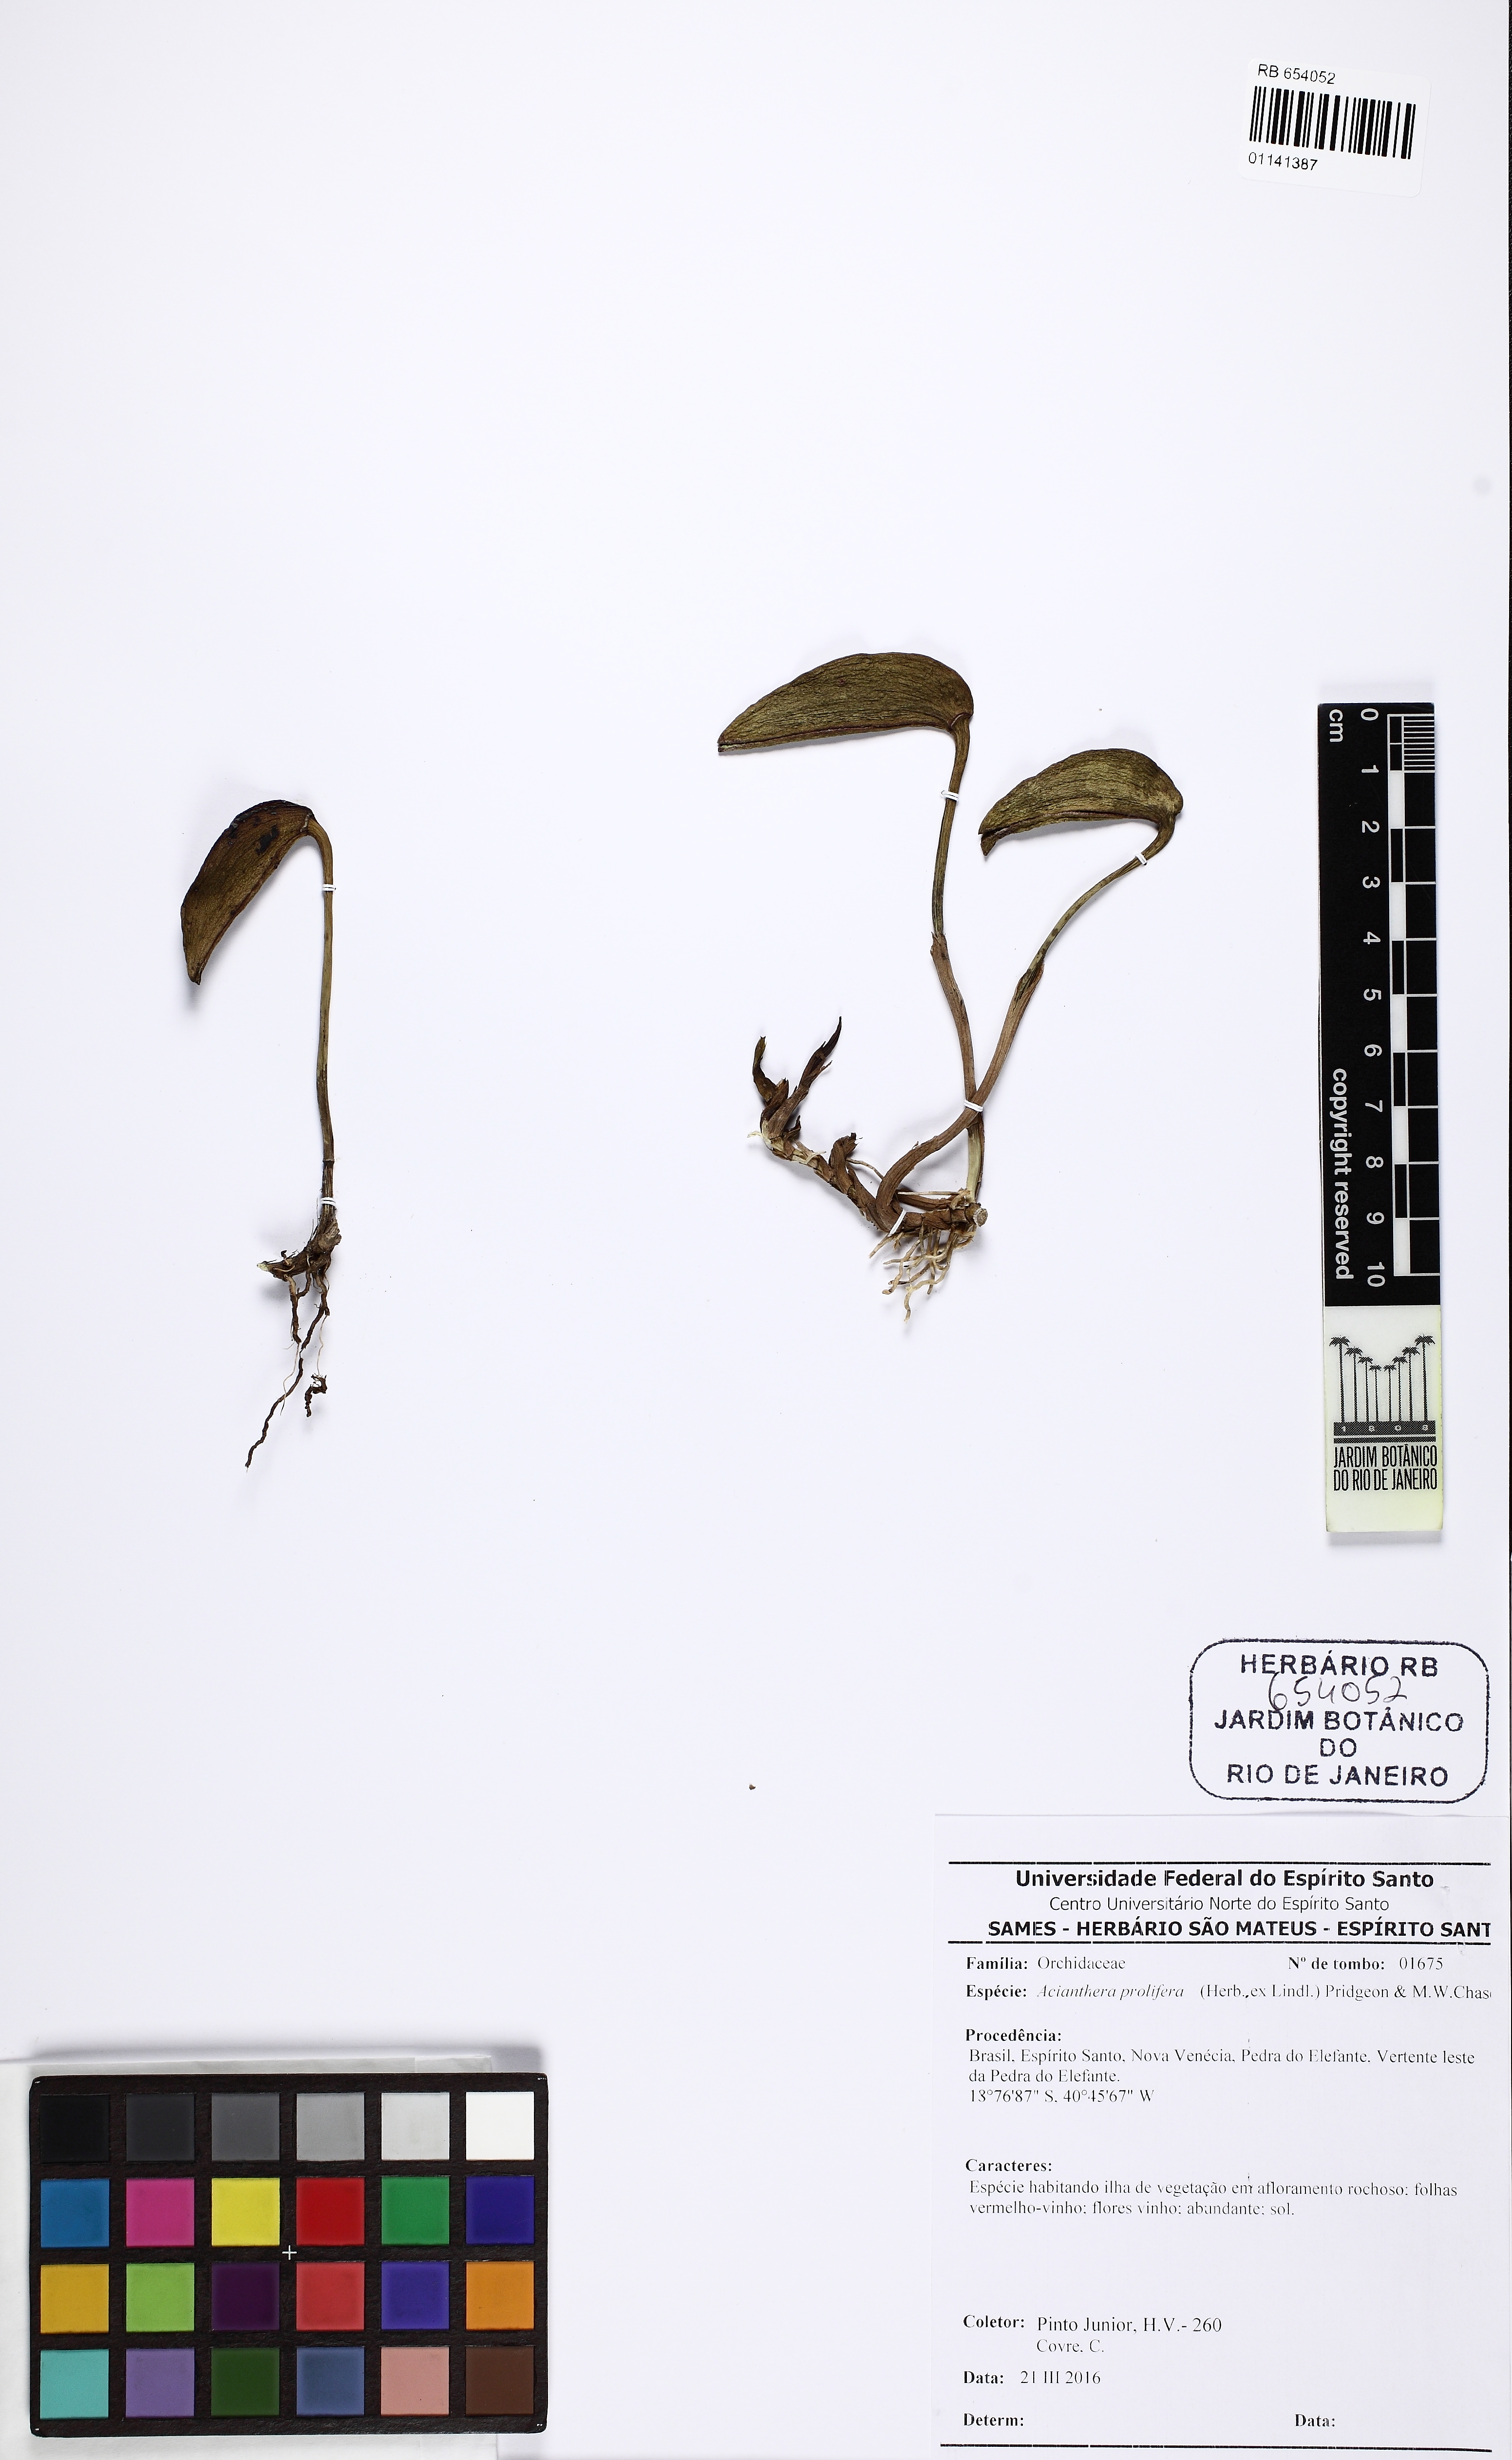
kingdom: Plantae
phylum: Tracheophyta
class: Liliopsida
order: Asparagales
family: Orchidaceae
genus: Acianthera
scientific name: Acianthera prolifera
